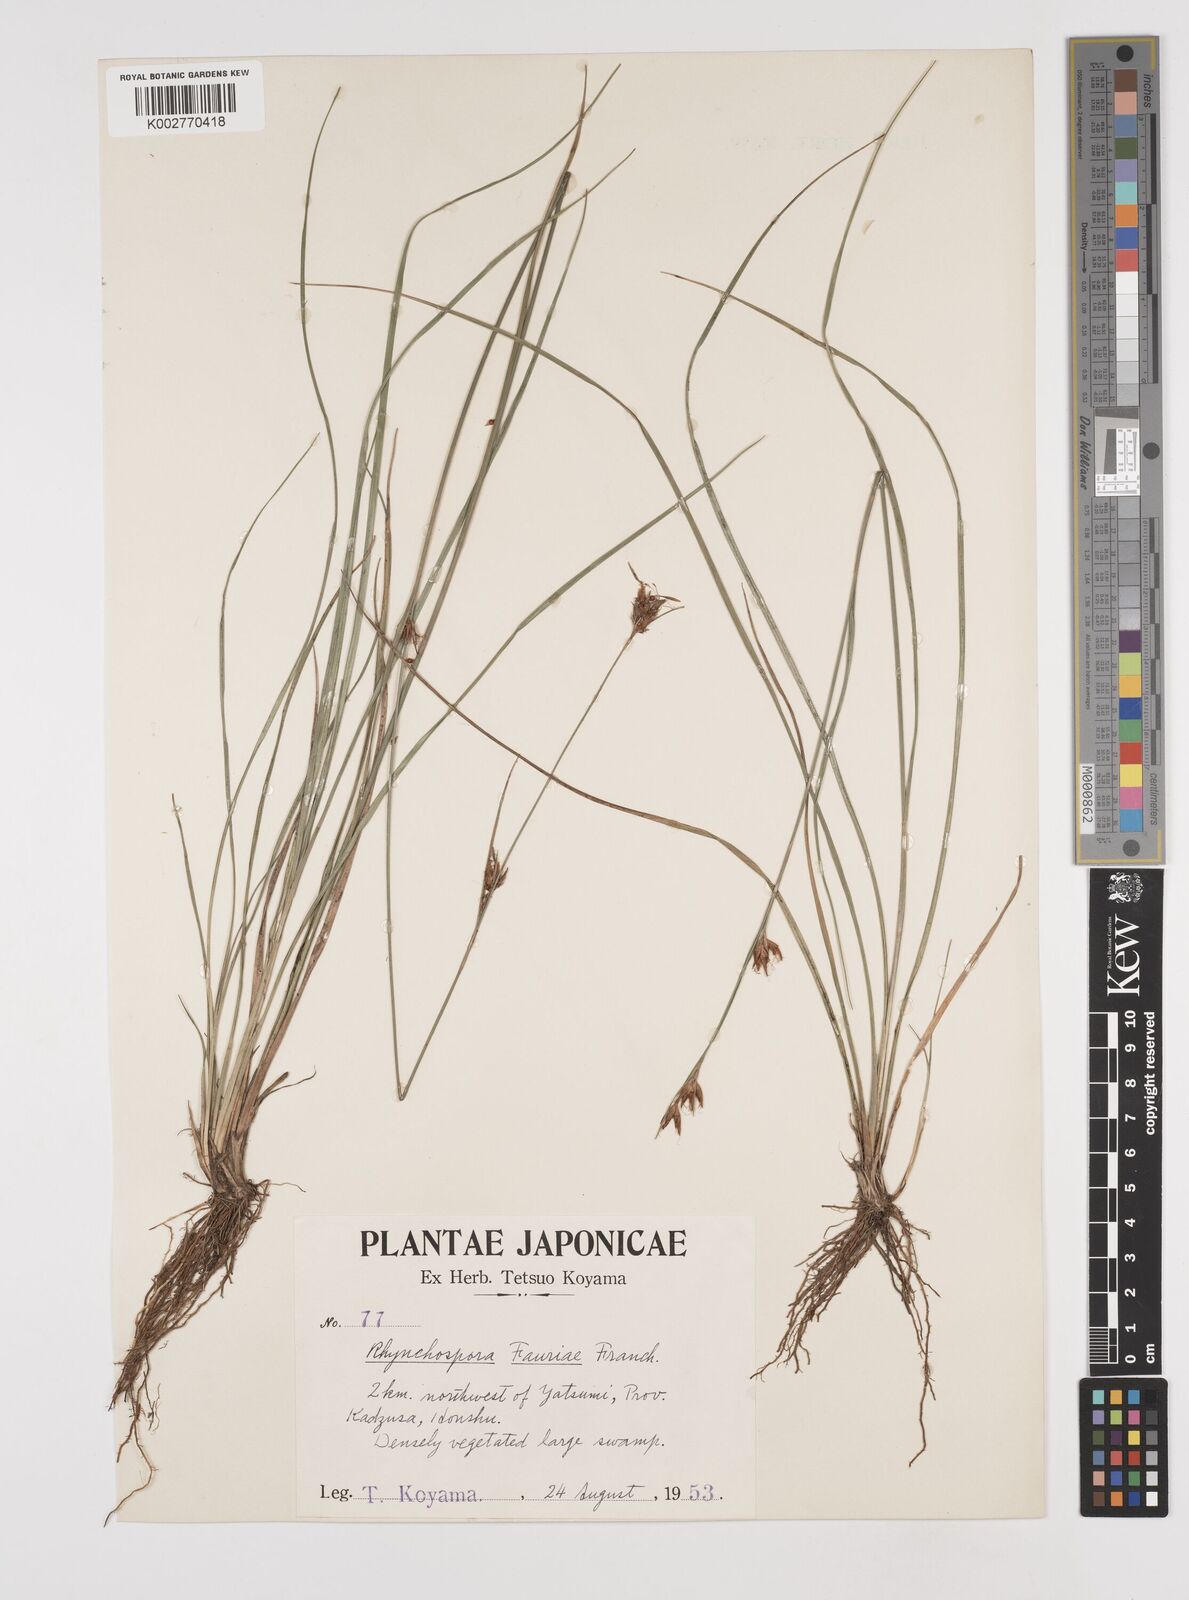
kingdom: Plantae
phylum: Tracheophyta
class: Liliopsida
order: Poales
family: Cyperaceae
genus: Rhynchospora
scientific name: Rhynchospora fauriei
